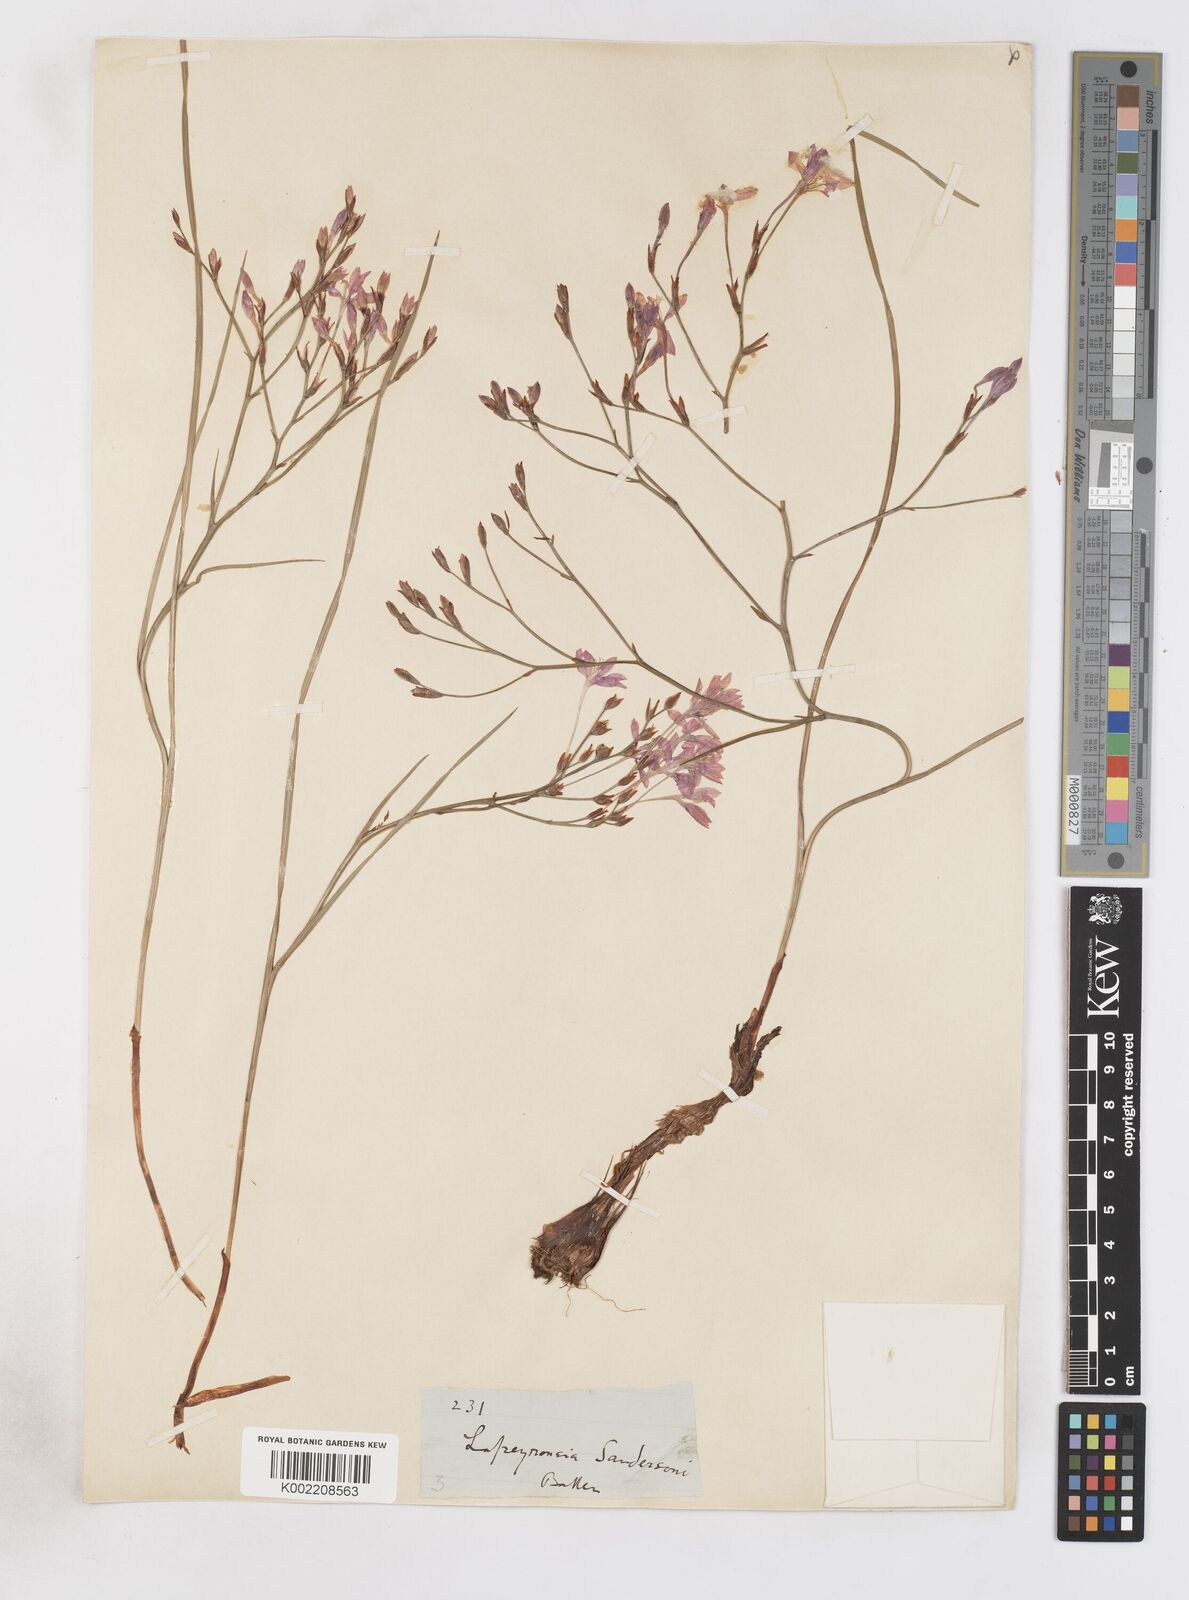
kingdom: Plantae
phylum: Tracheophyta
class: Liliopsida
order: Asparagales
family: Iridaceae
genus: Afrosolen
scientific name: Afrosolen sandersonii
